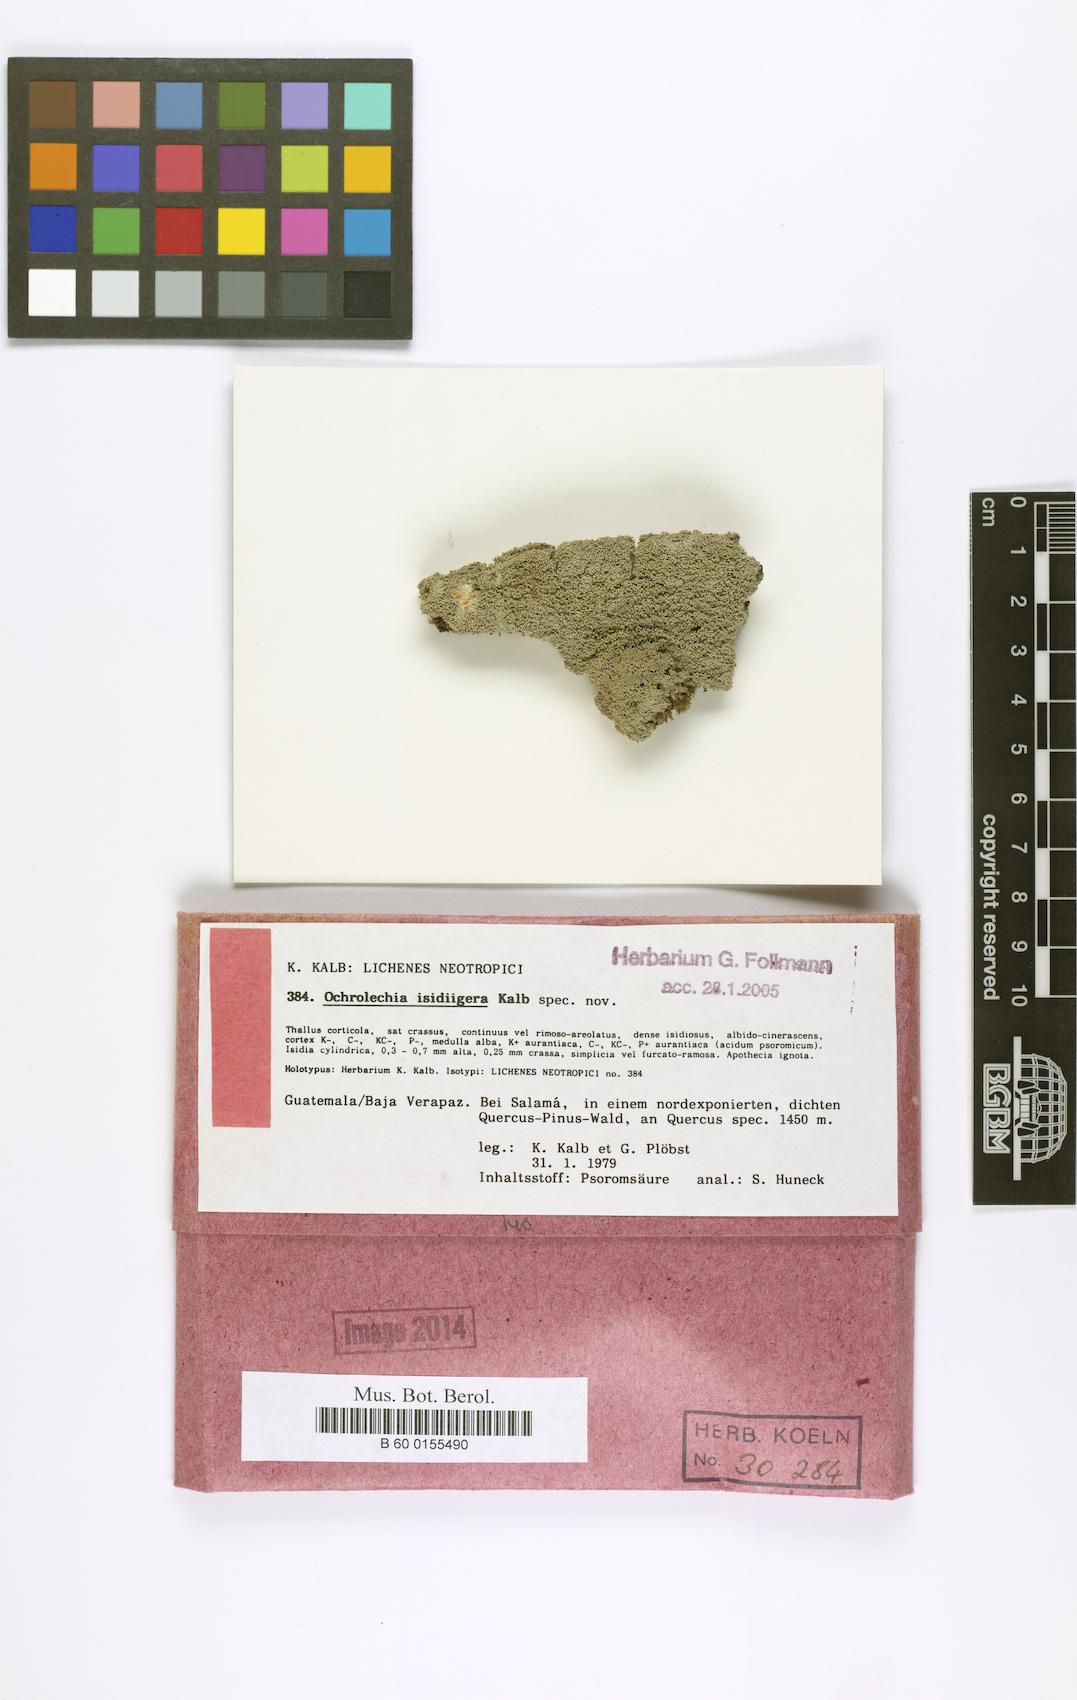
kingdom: Fungi
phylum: Ascomycota
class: Lecanoromycetes
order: Pertusariales
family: Ochrolechiaceae
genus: Ochrolechia
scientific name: Ochrolechia isidiigera
